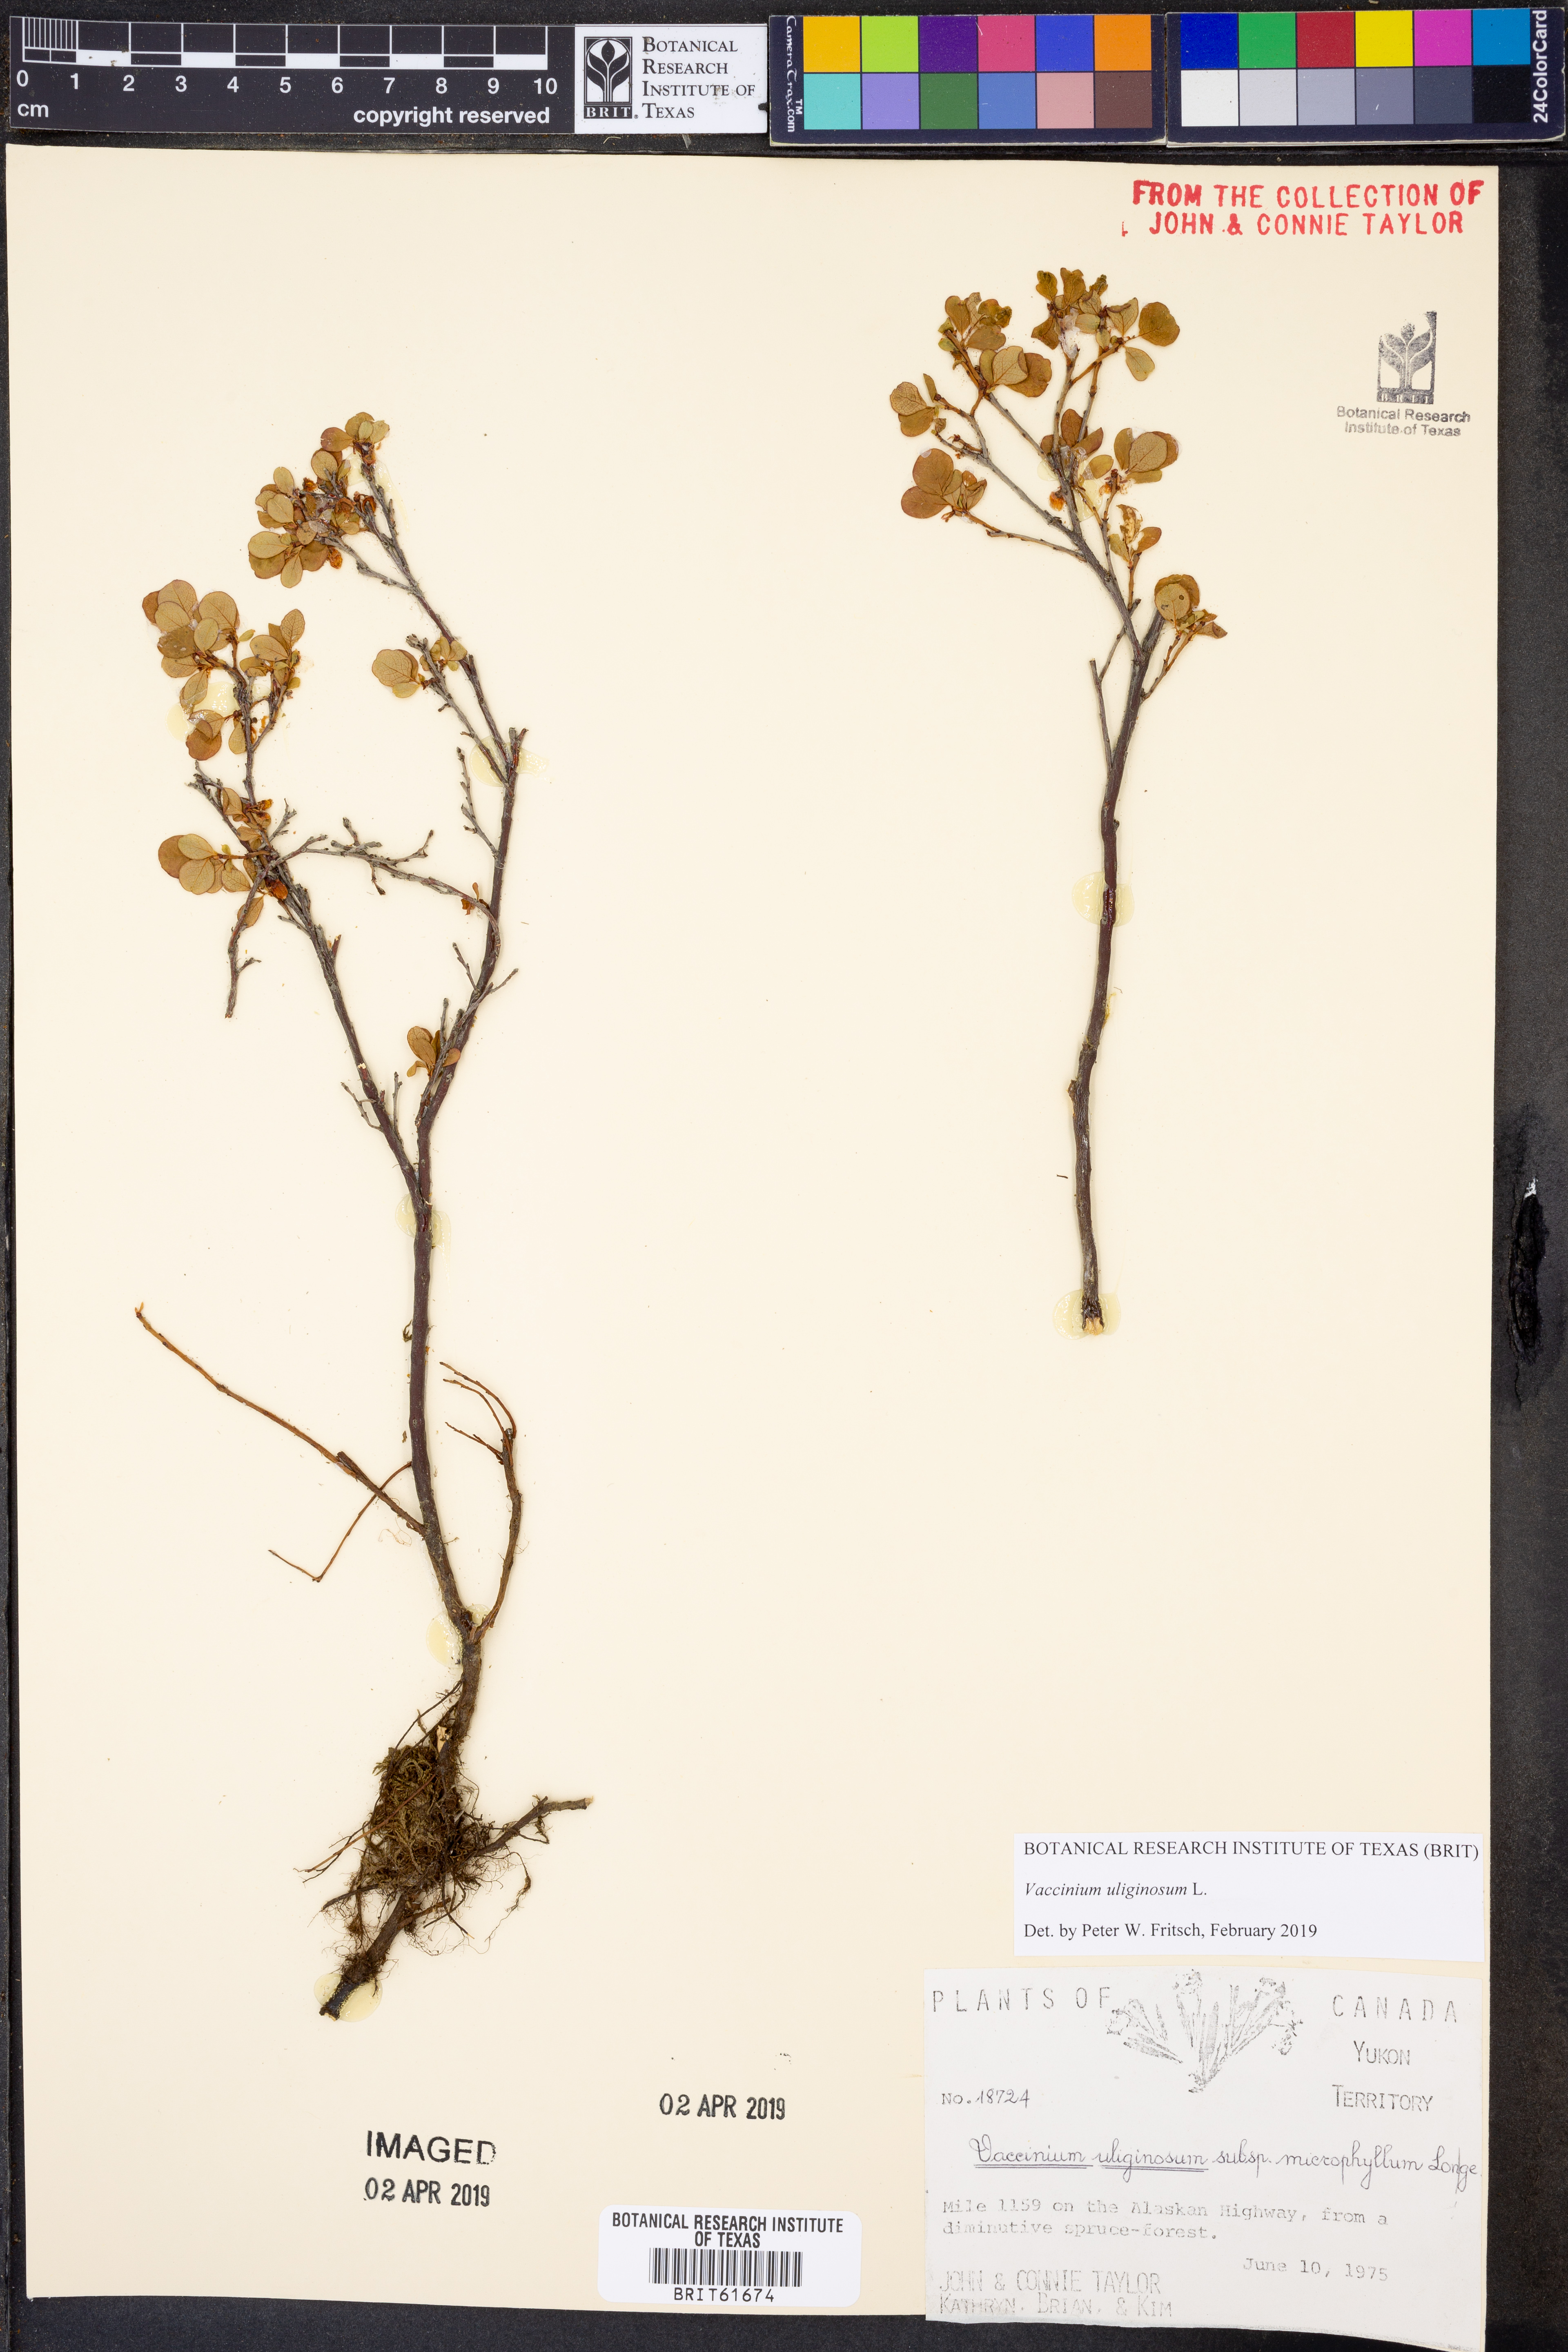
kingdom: Plantae
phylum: Tracheophyta
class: Magnoliopsida
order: Ericales
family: Ericaceae
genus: Vaccinium
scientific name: Vaccinium uliginosum
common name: Bog bilberry
